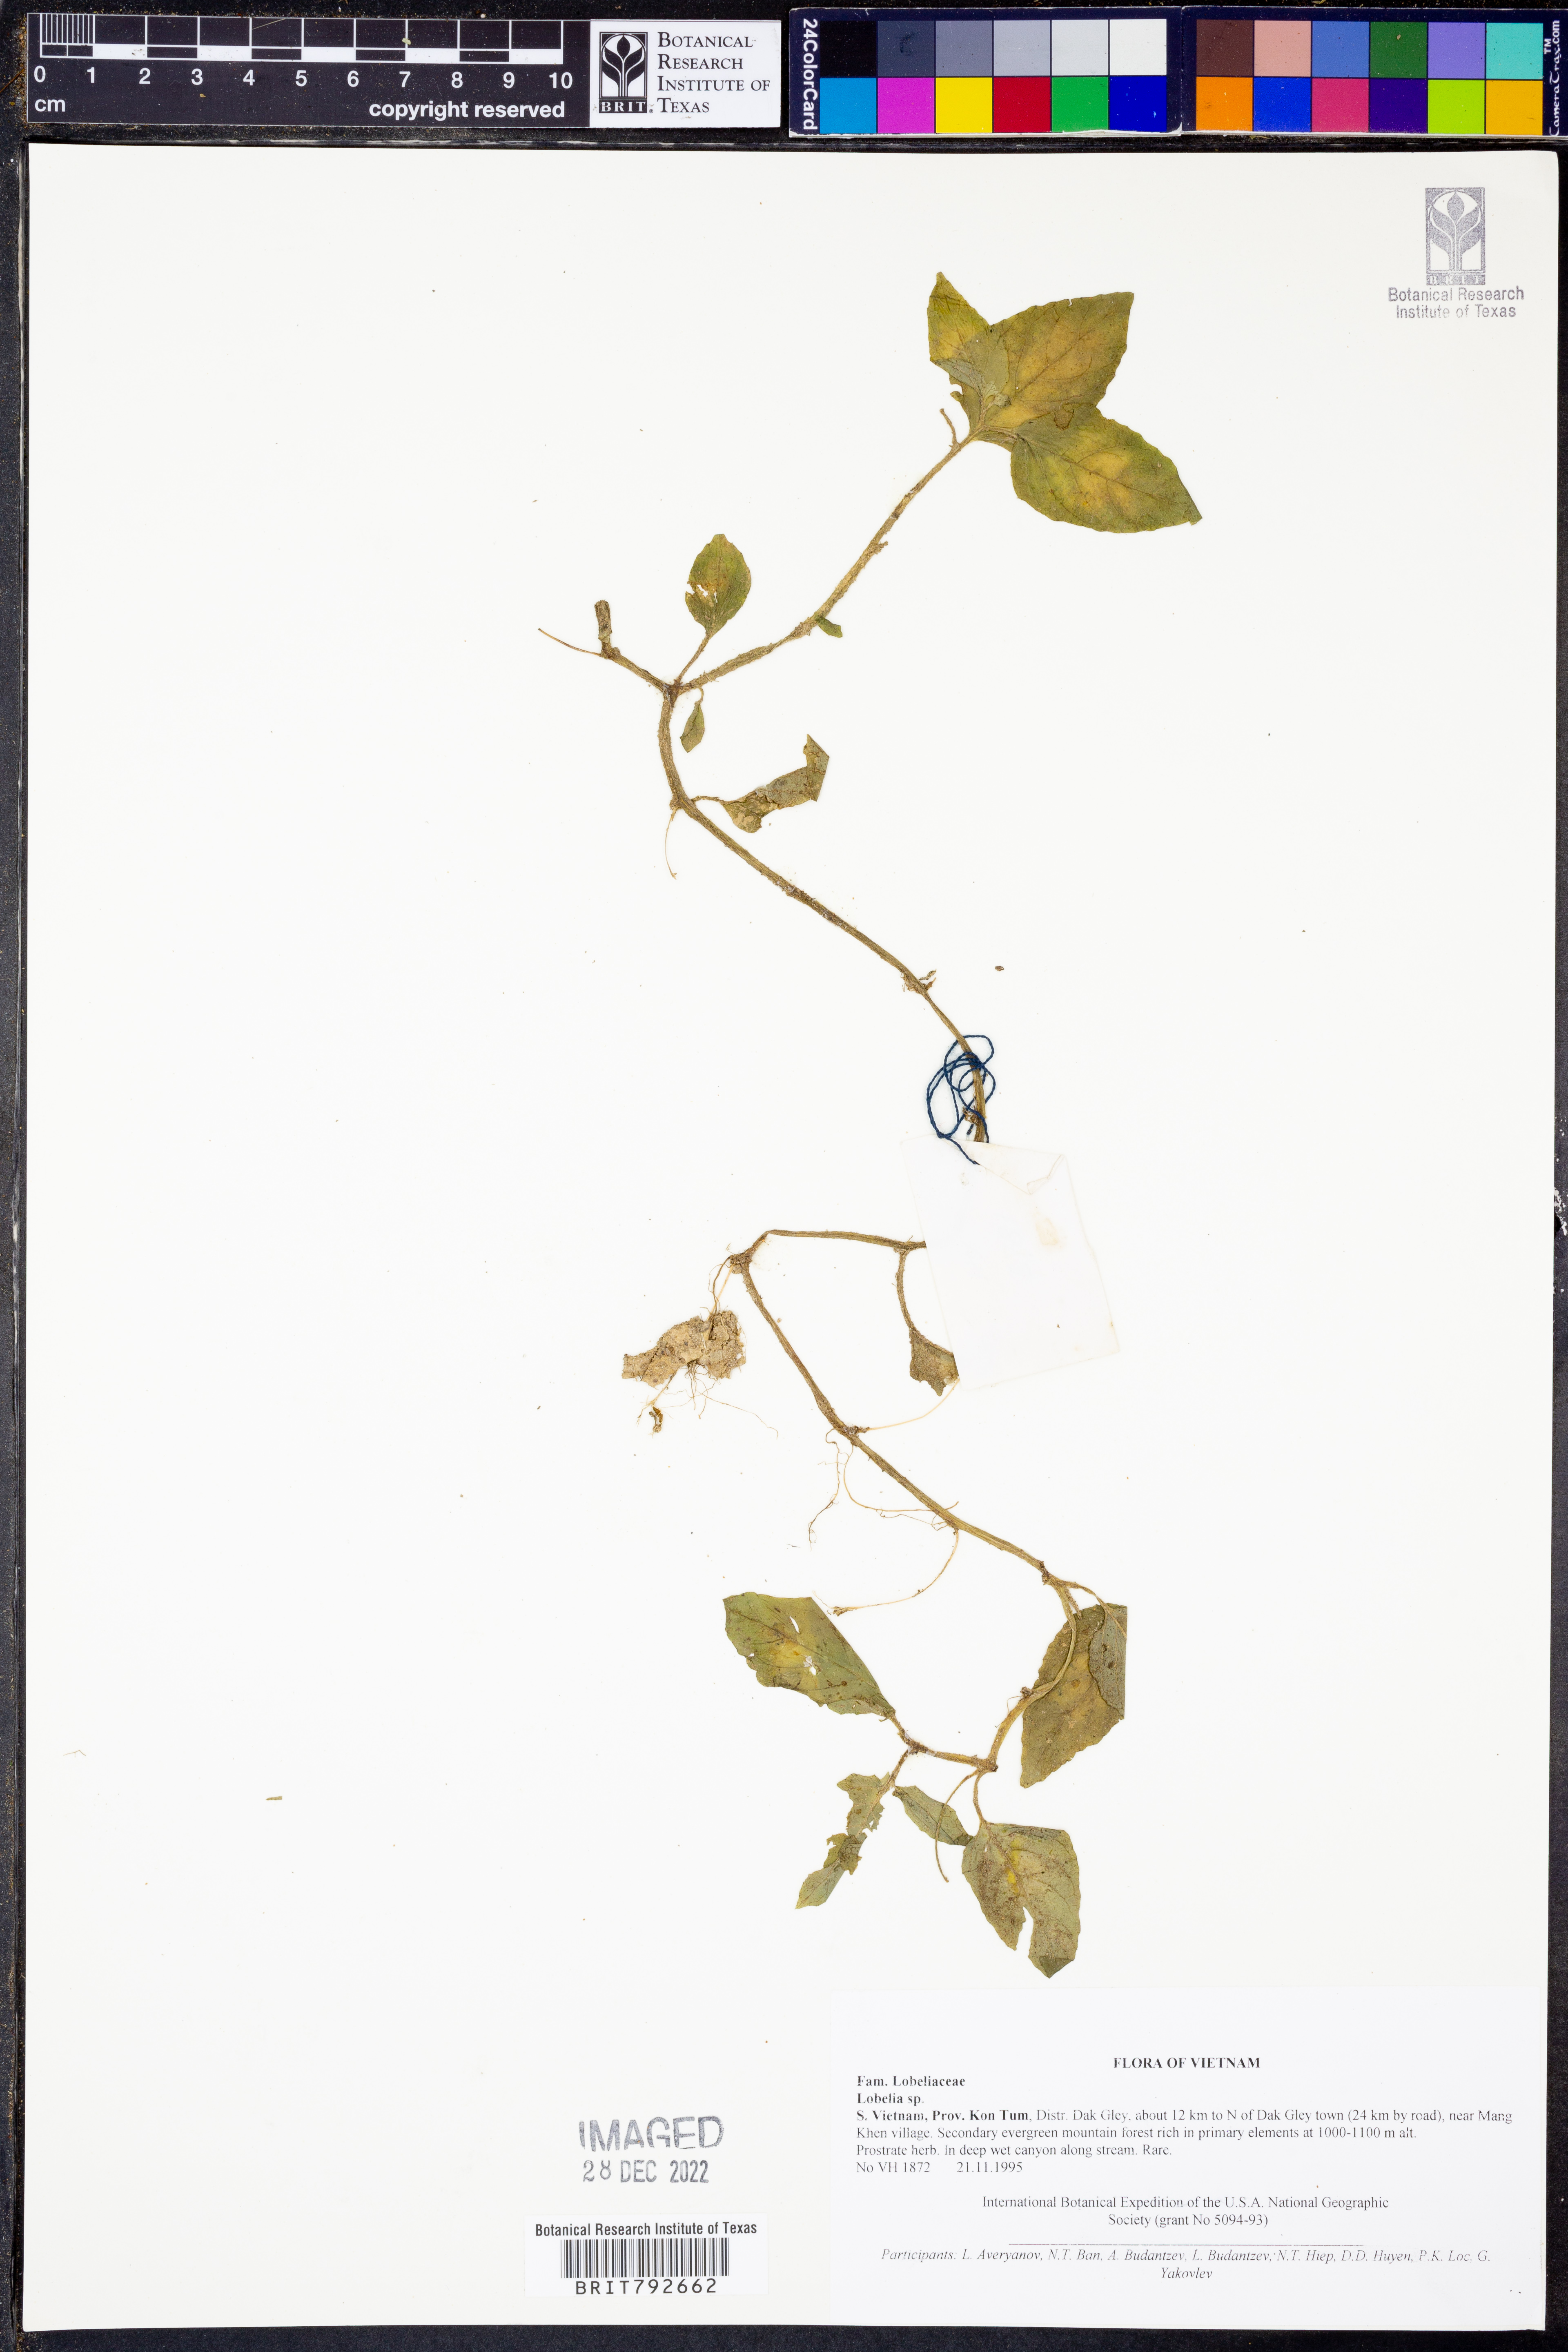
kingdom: Plantae
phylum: Tracheophyta
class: Magnoliopsida
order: Asterales
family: Campanulaceae
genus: Lobelia
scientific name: Lobelia
